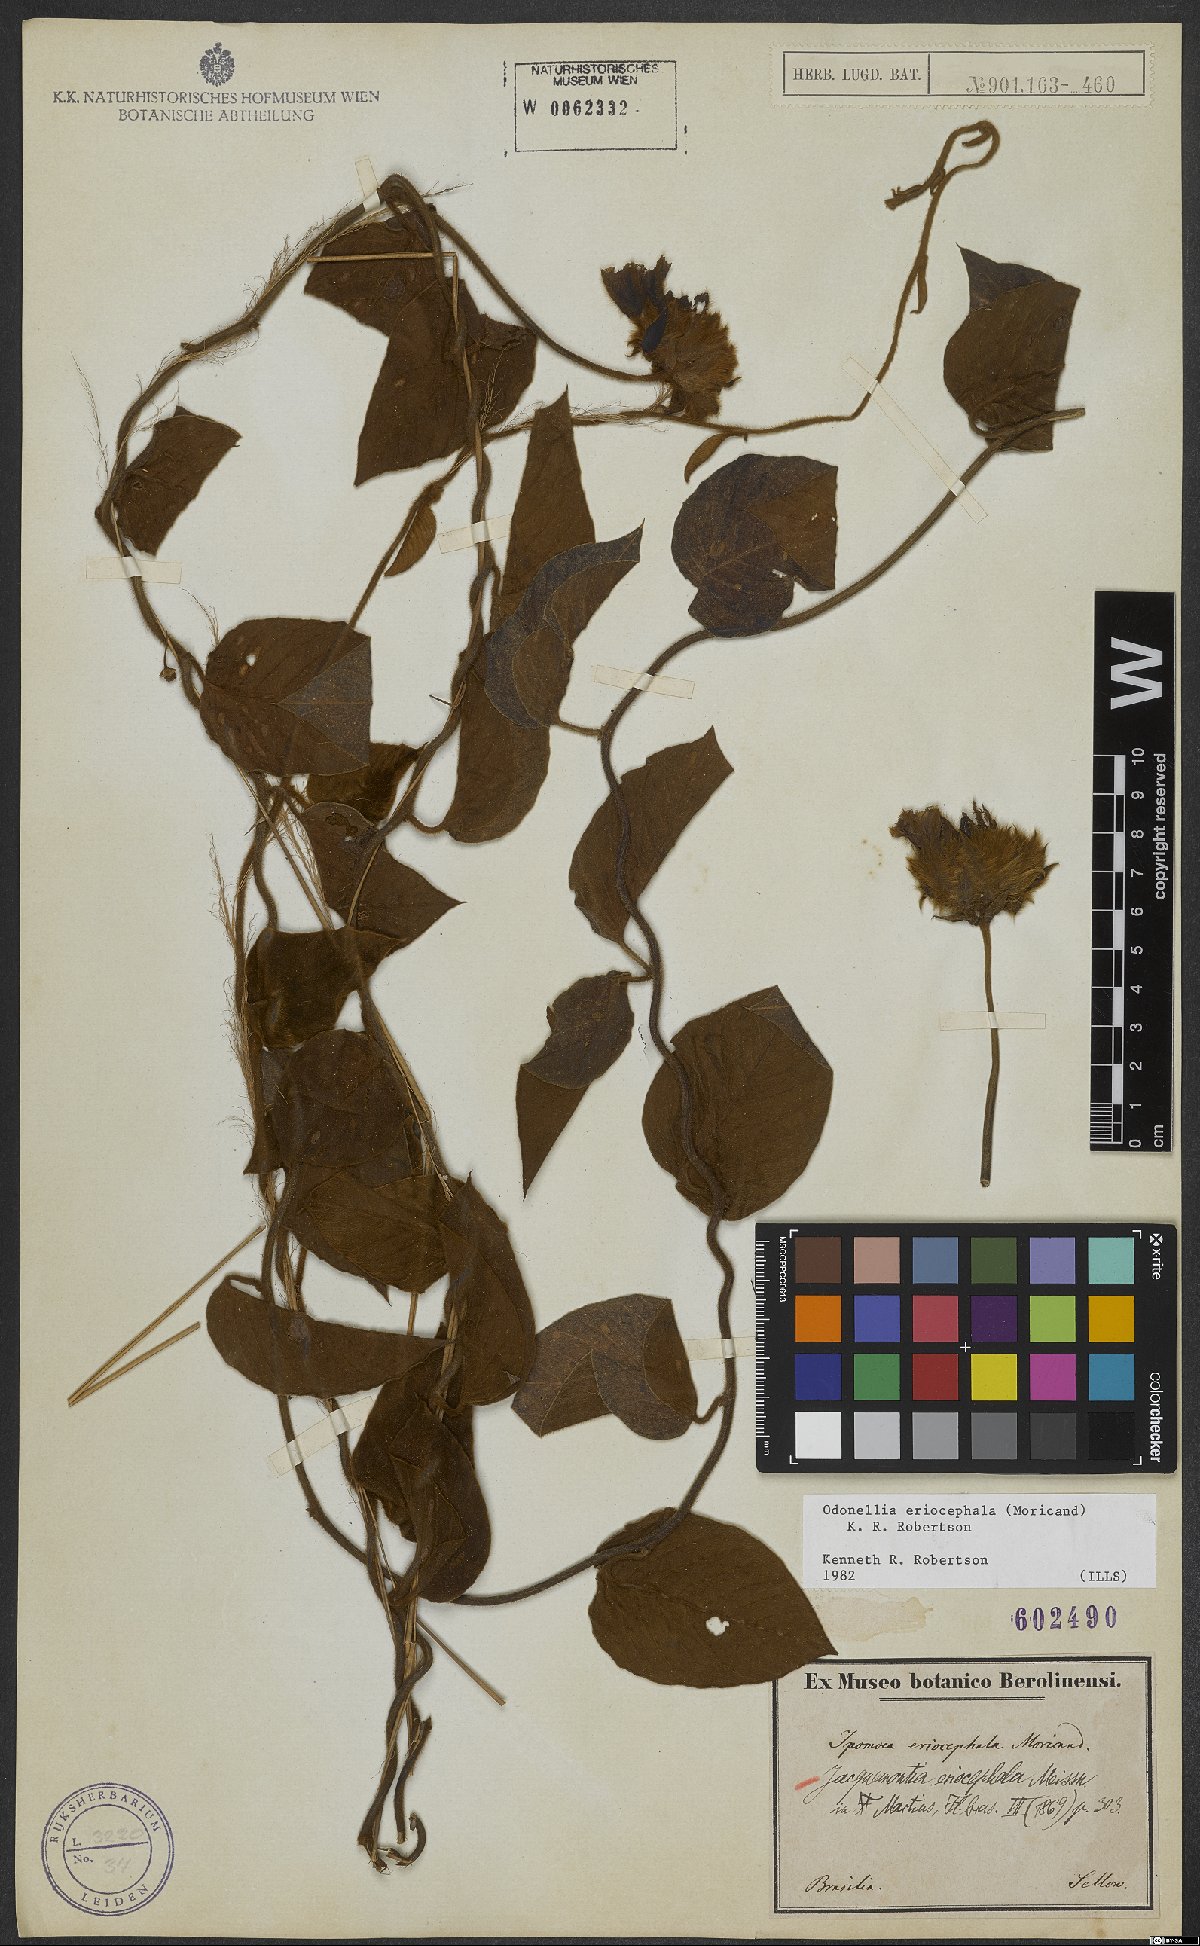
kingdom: Plantae
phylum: Tracheophyta
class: Magnoliopsida
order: Solanales
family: Convolvulaceae
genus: Odonellia
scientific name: Odonellia eriocephala
